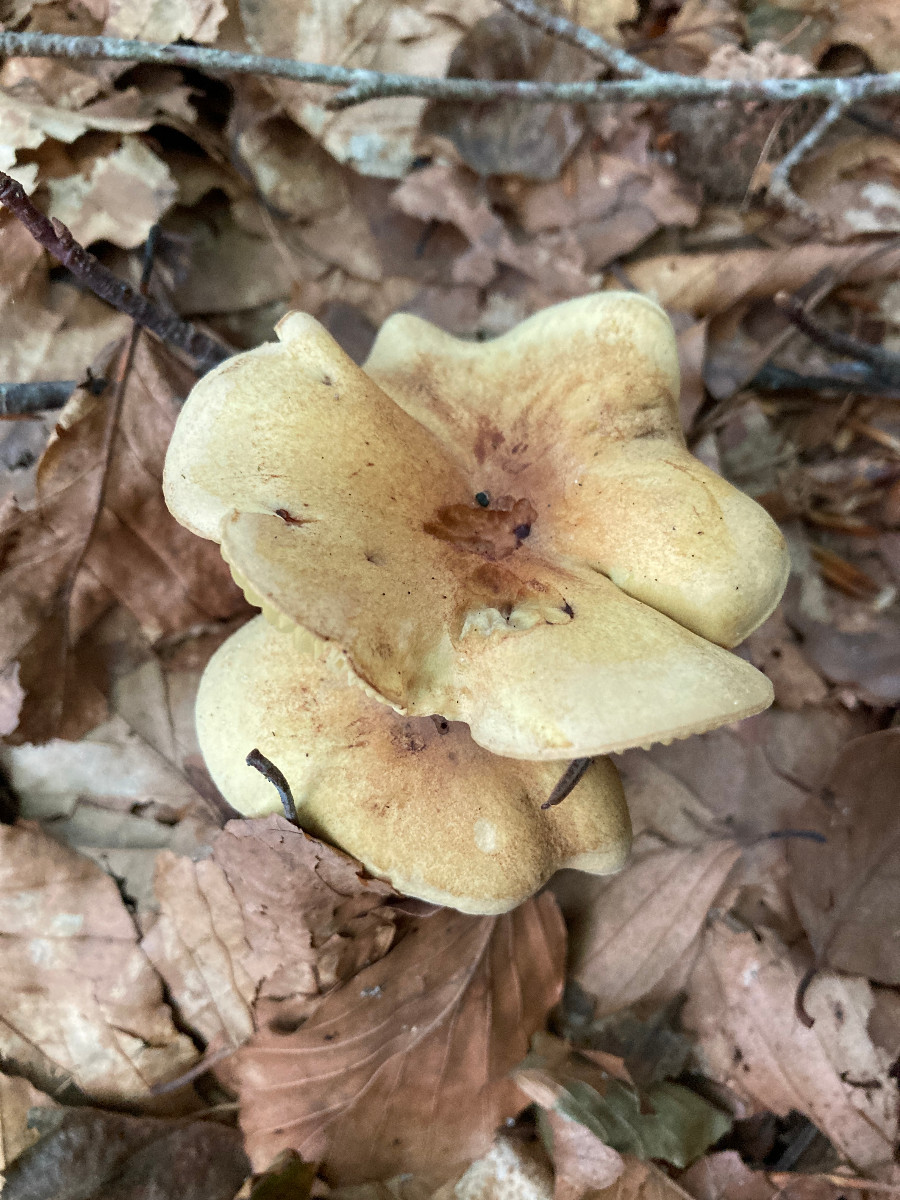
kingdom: Fungi
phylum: Basidiomycota
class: Agaricomycetes
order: Agaricales
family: Tricholomataceae
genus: Tricholoma
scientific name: Tricholoma sulphureum
